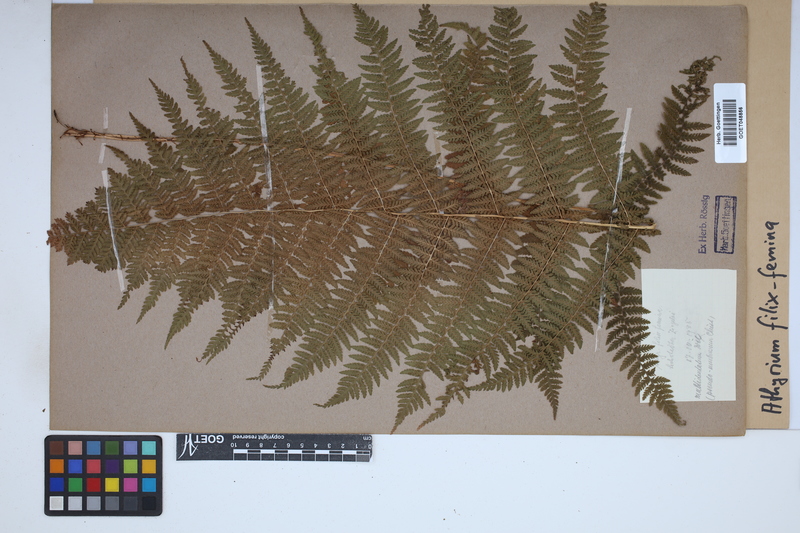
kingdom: Plantae
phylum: Tracheophyta
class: Polypodiopsida
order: Polypodiales
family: Athyriaceae
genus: Athyrium
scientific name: Athyrium filix-femina
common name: Lady fern
